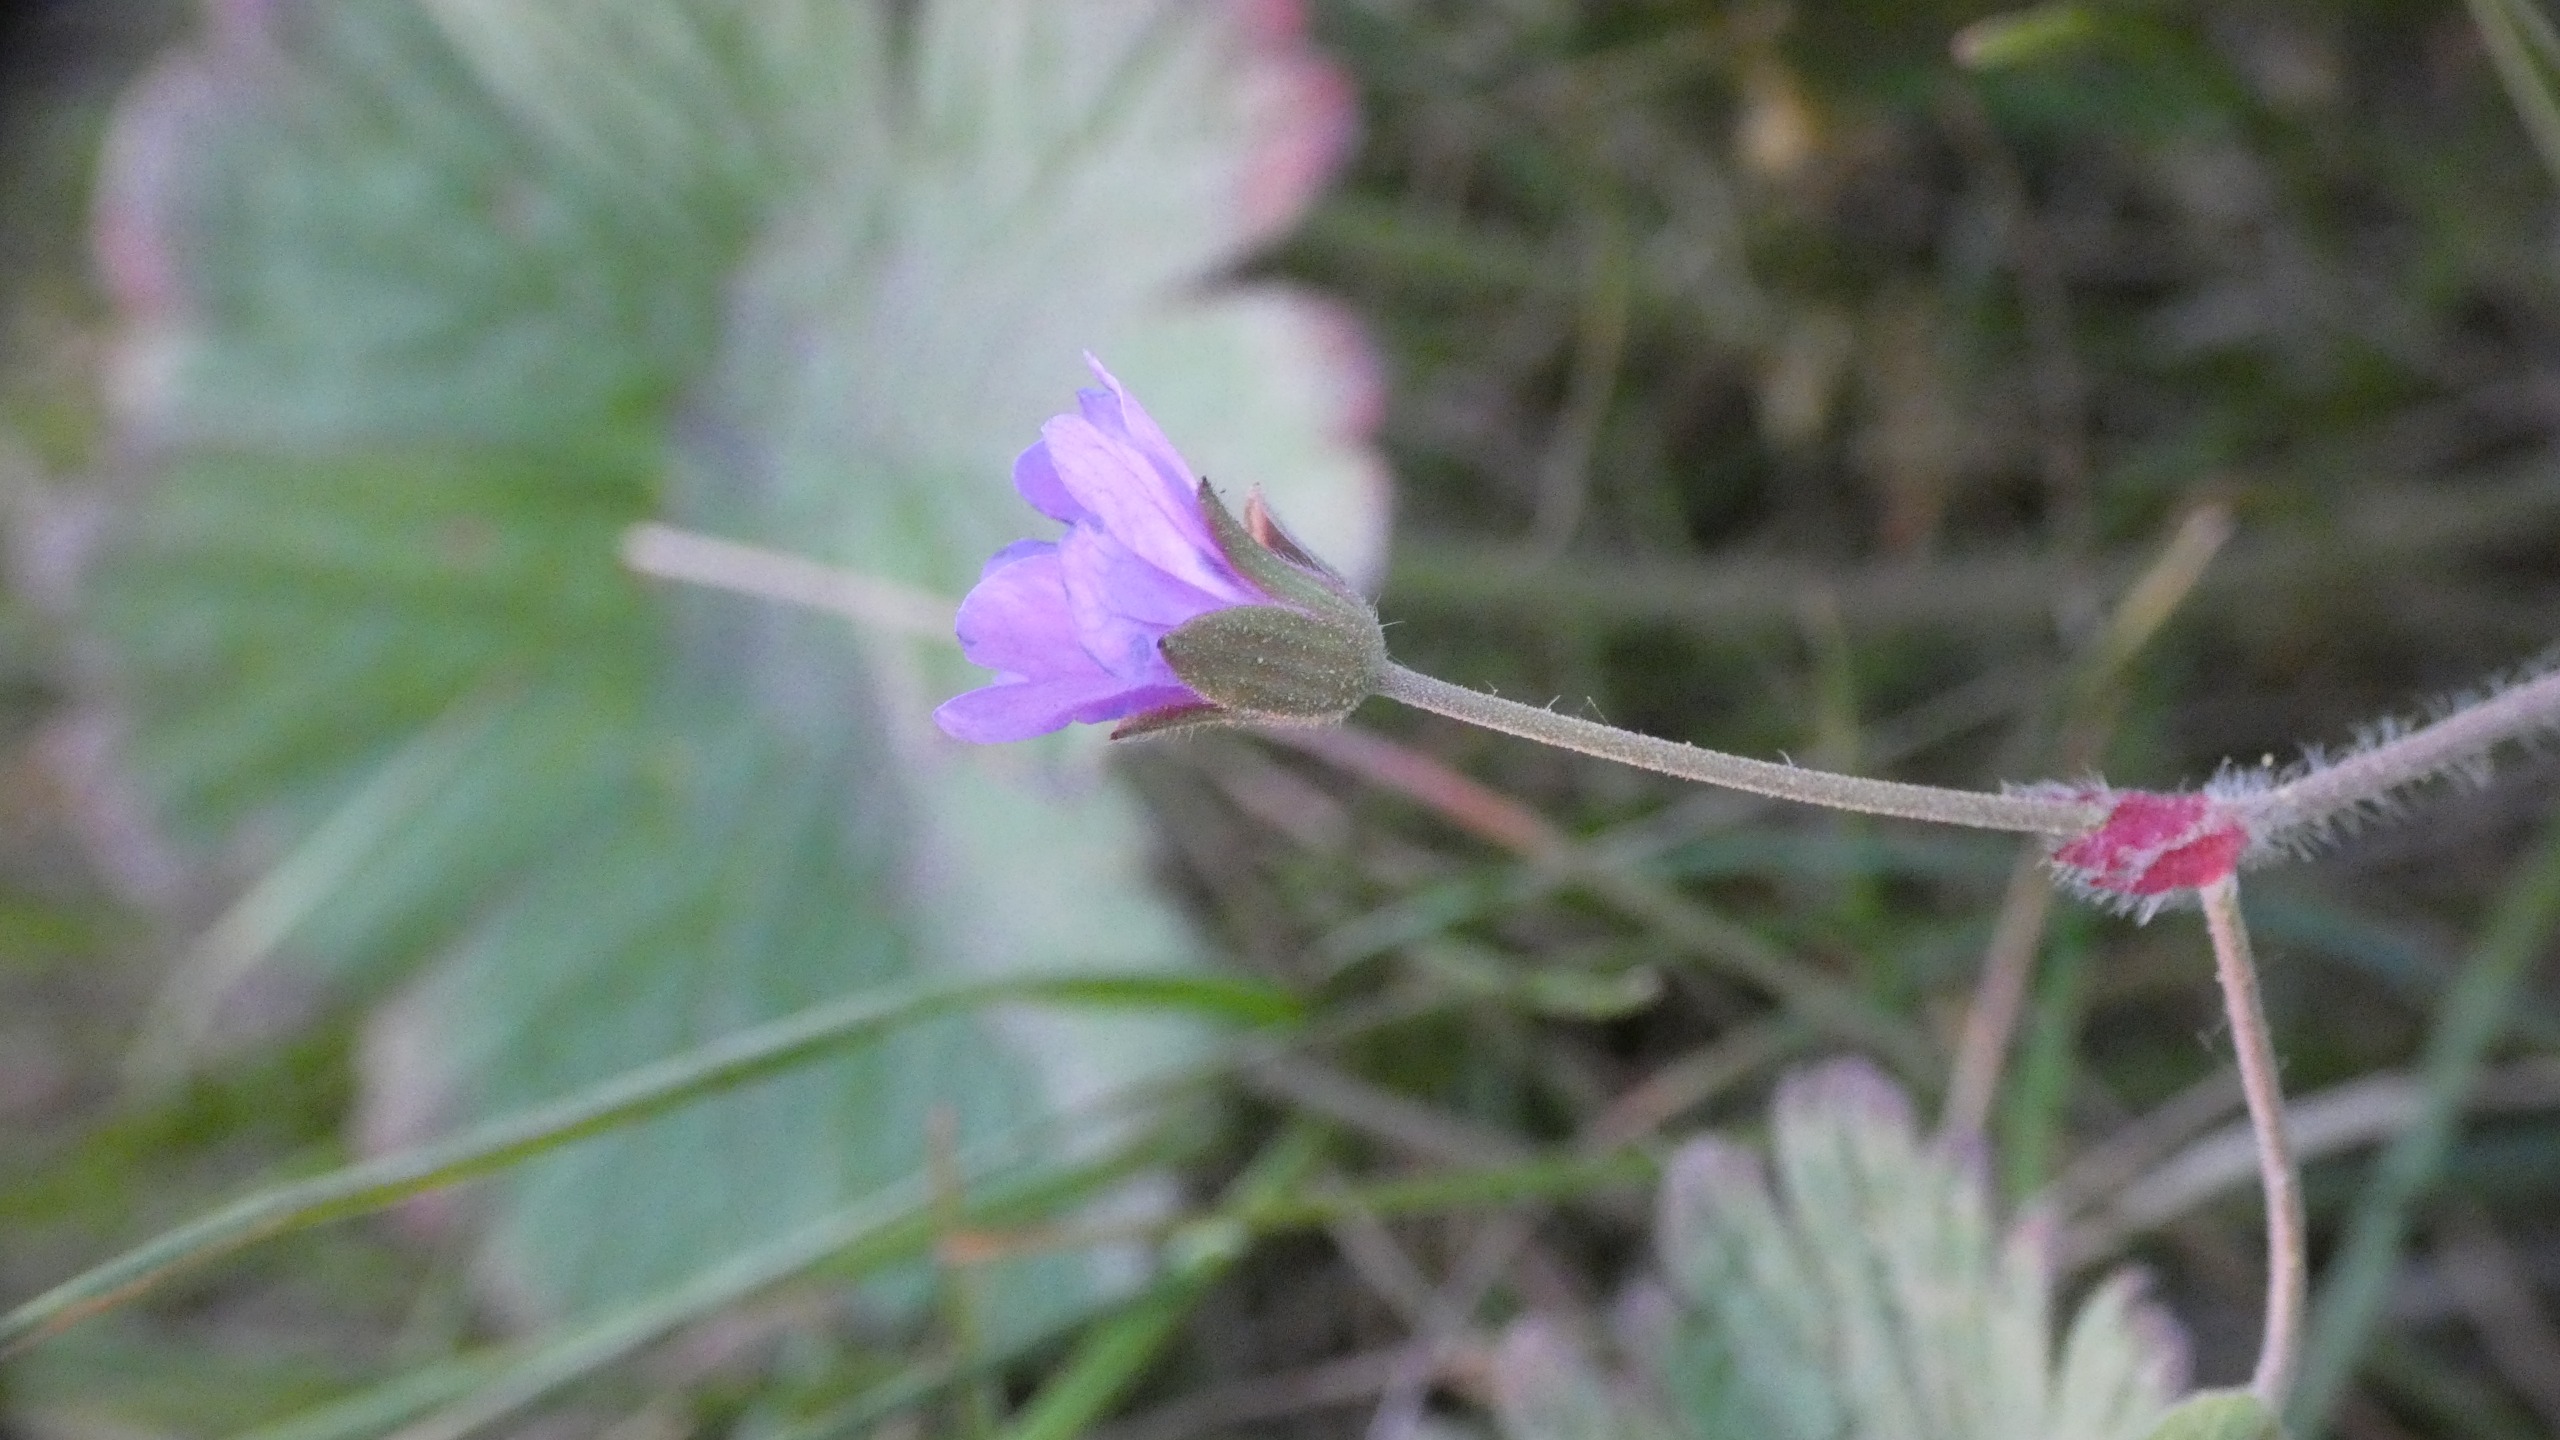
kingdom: Plantae
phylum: Tracheophyta
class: Magnoliopsida
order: Geraniales
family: Geraniaceae
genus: Geranium
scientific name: Geranium pyrenaicum
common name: Pyrenæisk storkenæb
